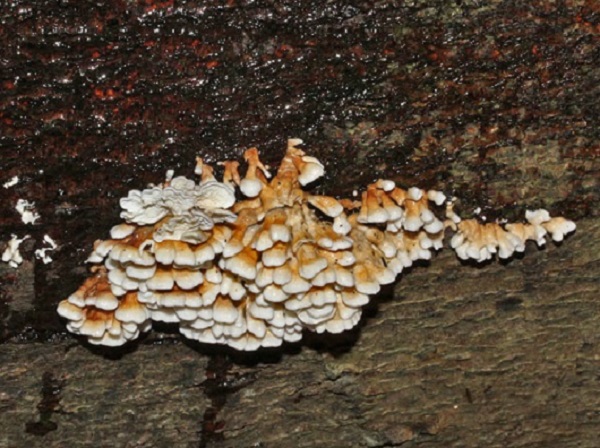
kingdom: Fungi
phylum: Basidiomycota
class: Agaricomycetes
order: Amylocorticiales
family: Amylocorticiaceae
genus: Plicaturopsis
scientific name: Plicaturopsis crispa
